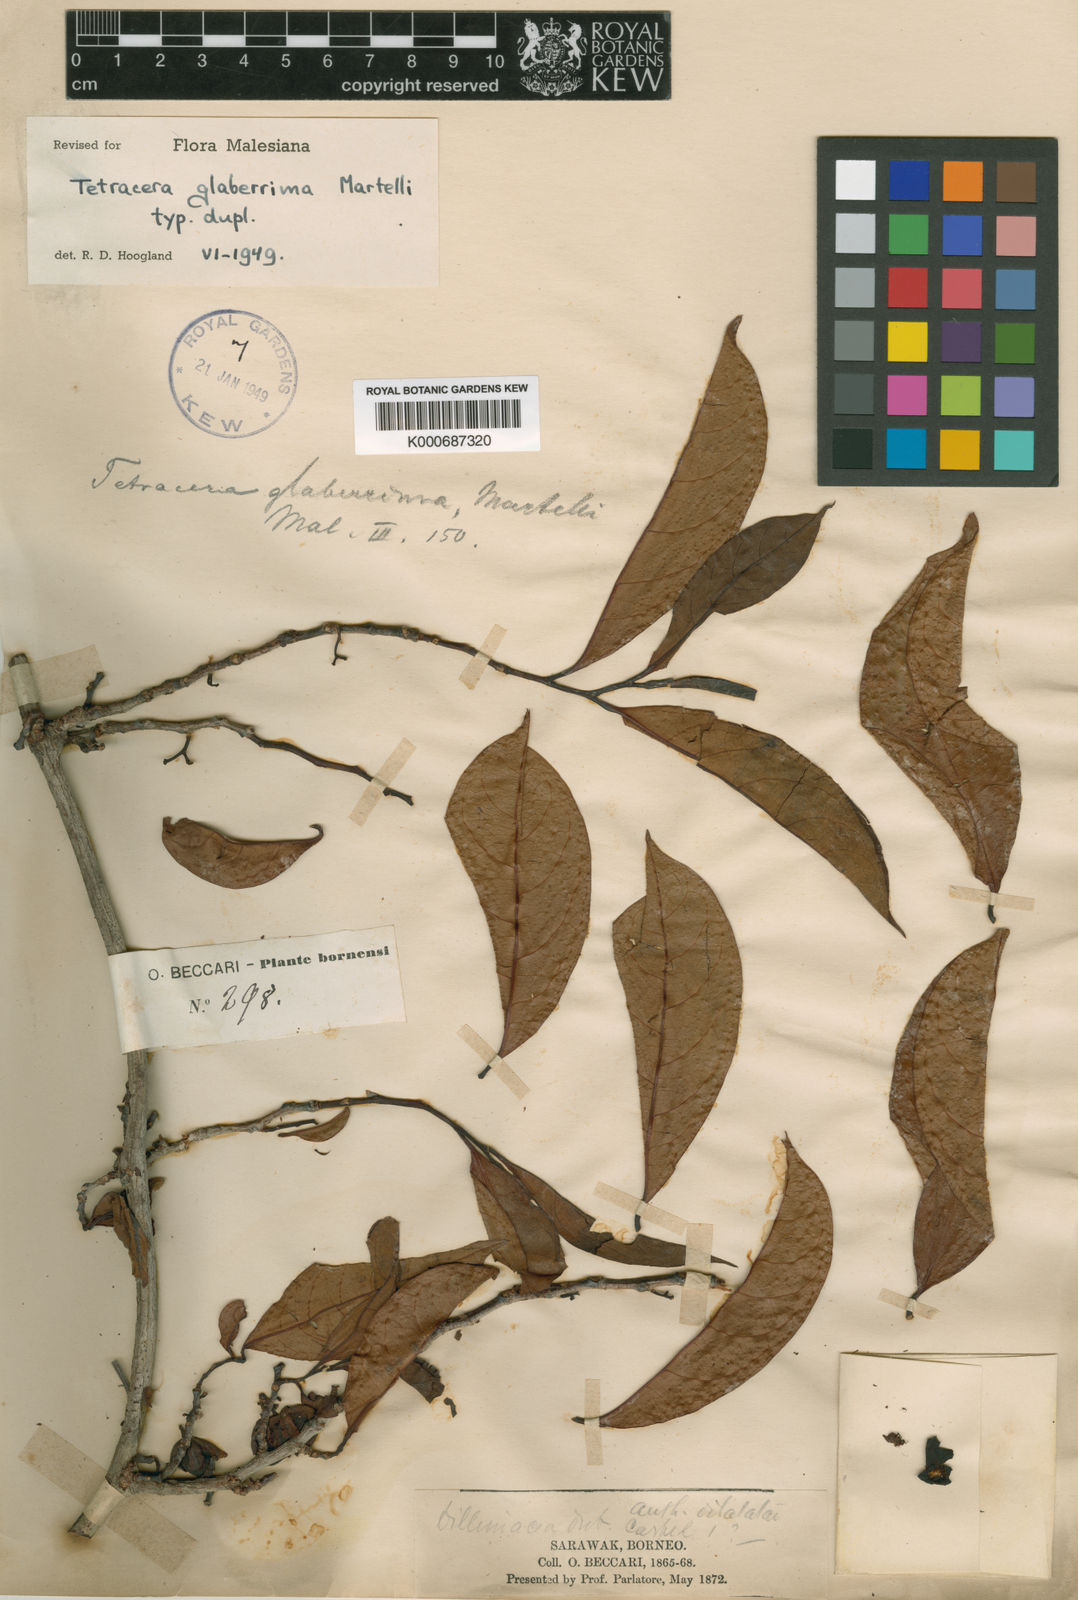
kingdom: Plantae
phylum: Tracheophyta
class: Magnoliopsida
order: Dilleniales
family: Dilleniaceae
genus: Tetracera
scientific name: Tetracera glaberrima
